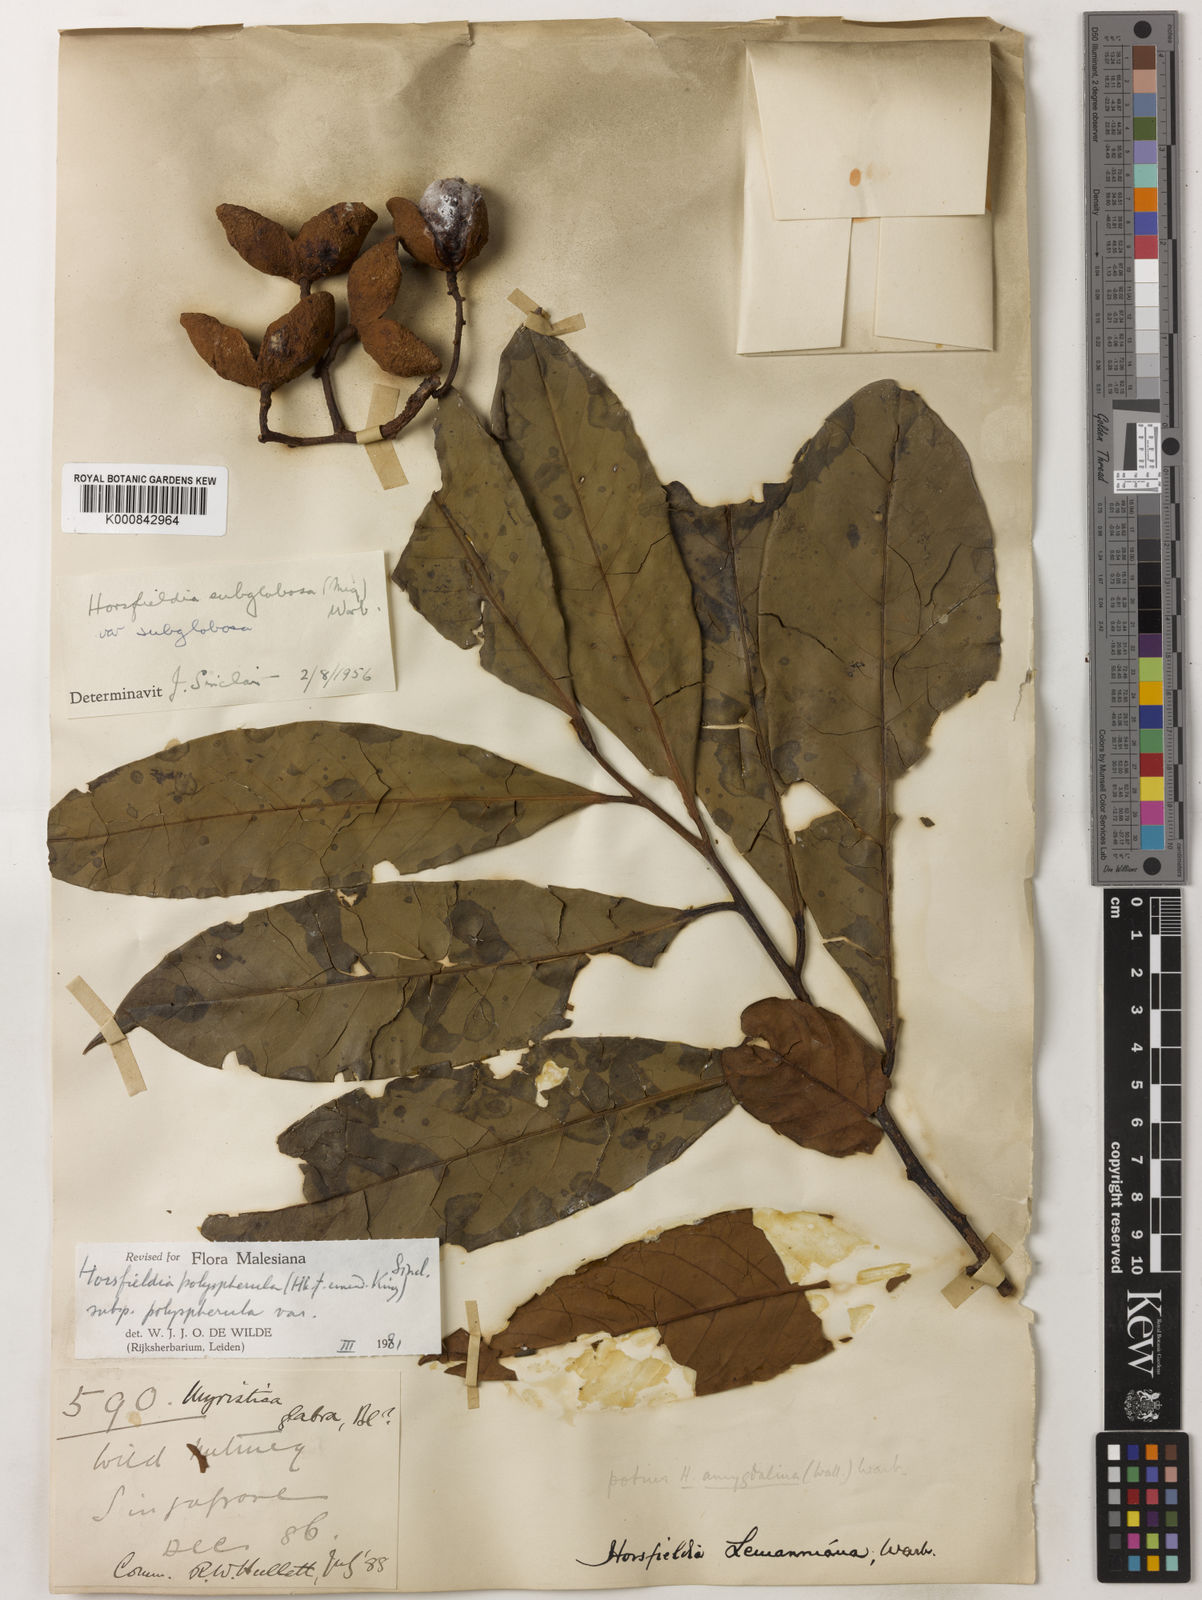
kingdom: Plantae
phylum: Tracheophyta
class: Magnoliopsida
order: Magnoliales
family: Myristicaceae
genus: Horsfieldia
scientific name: Horsfieldia
